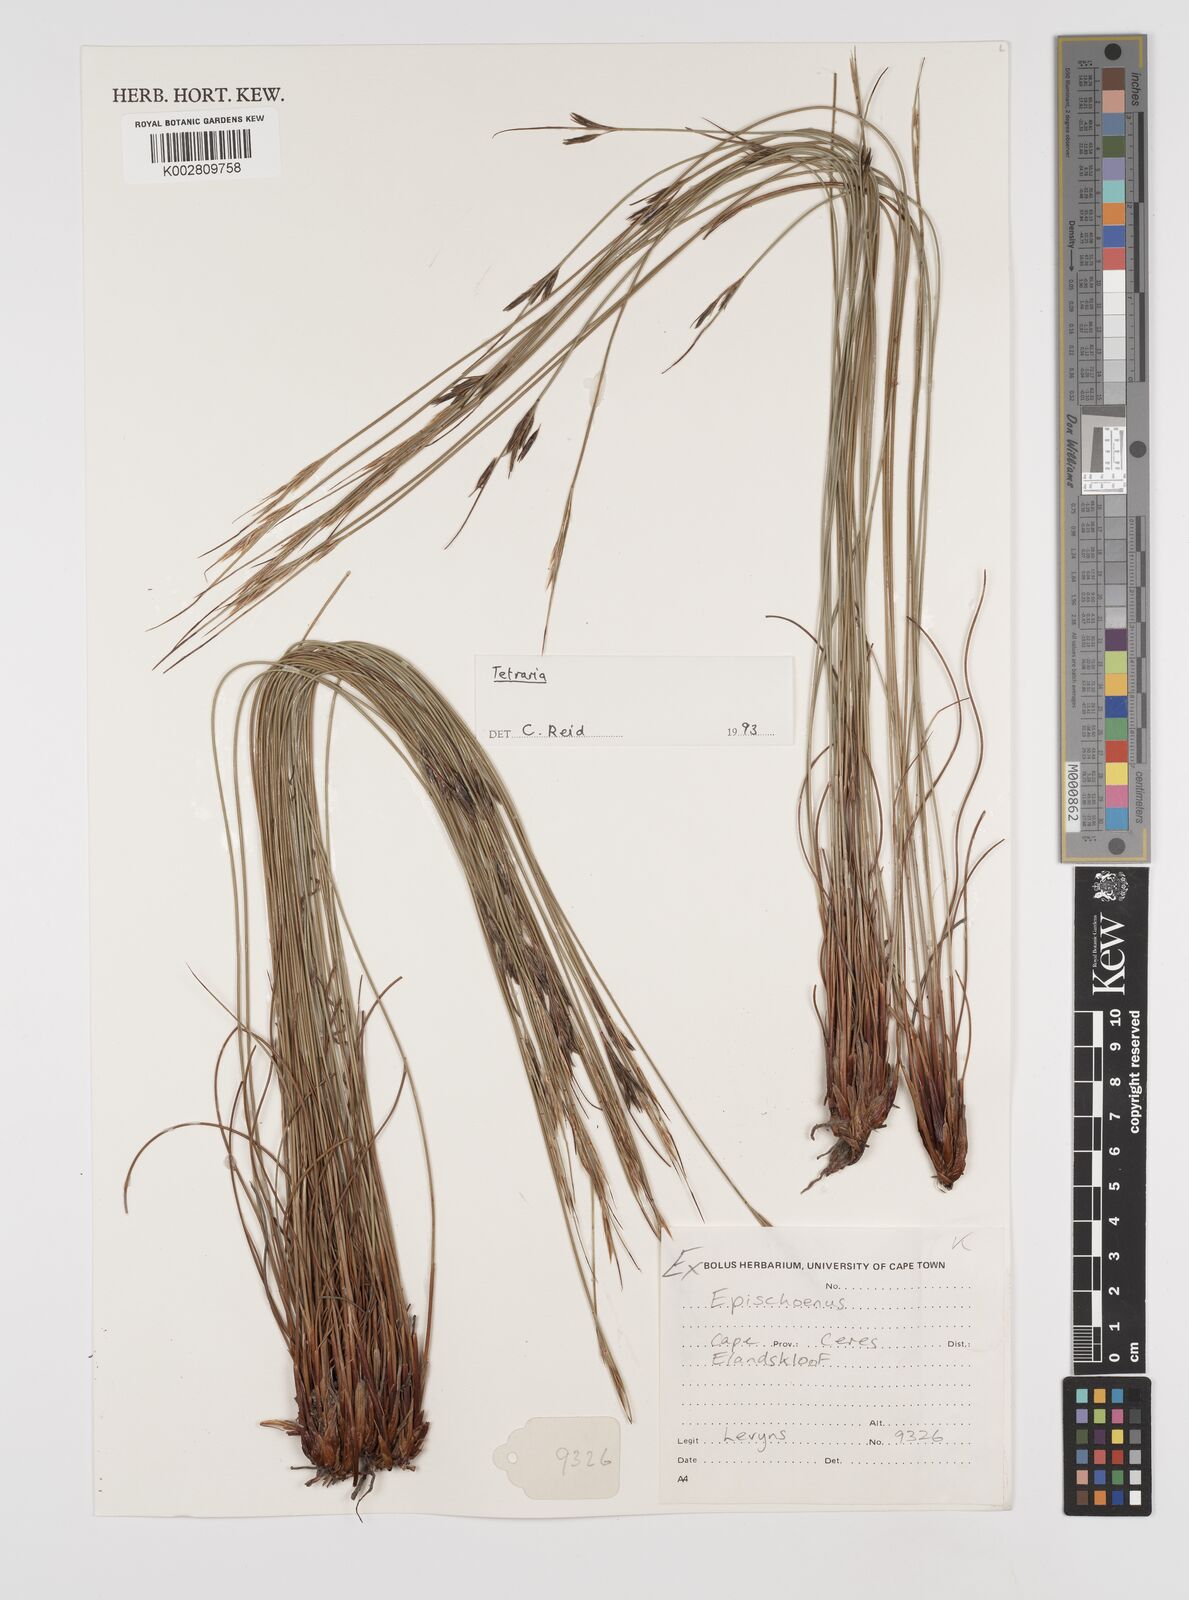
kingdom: Plantae
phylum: Tracheophyta
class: Liliopsida
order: Poales
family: Cyperaceae
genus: Schoenus
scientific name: Schoenus dregeanus
